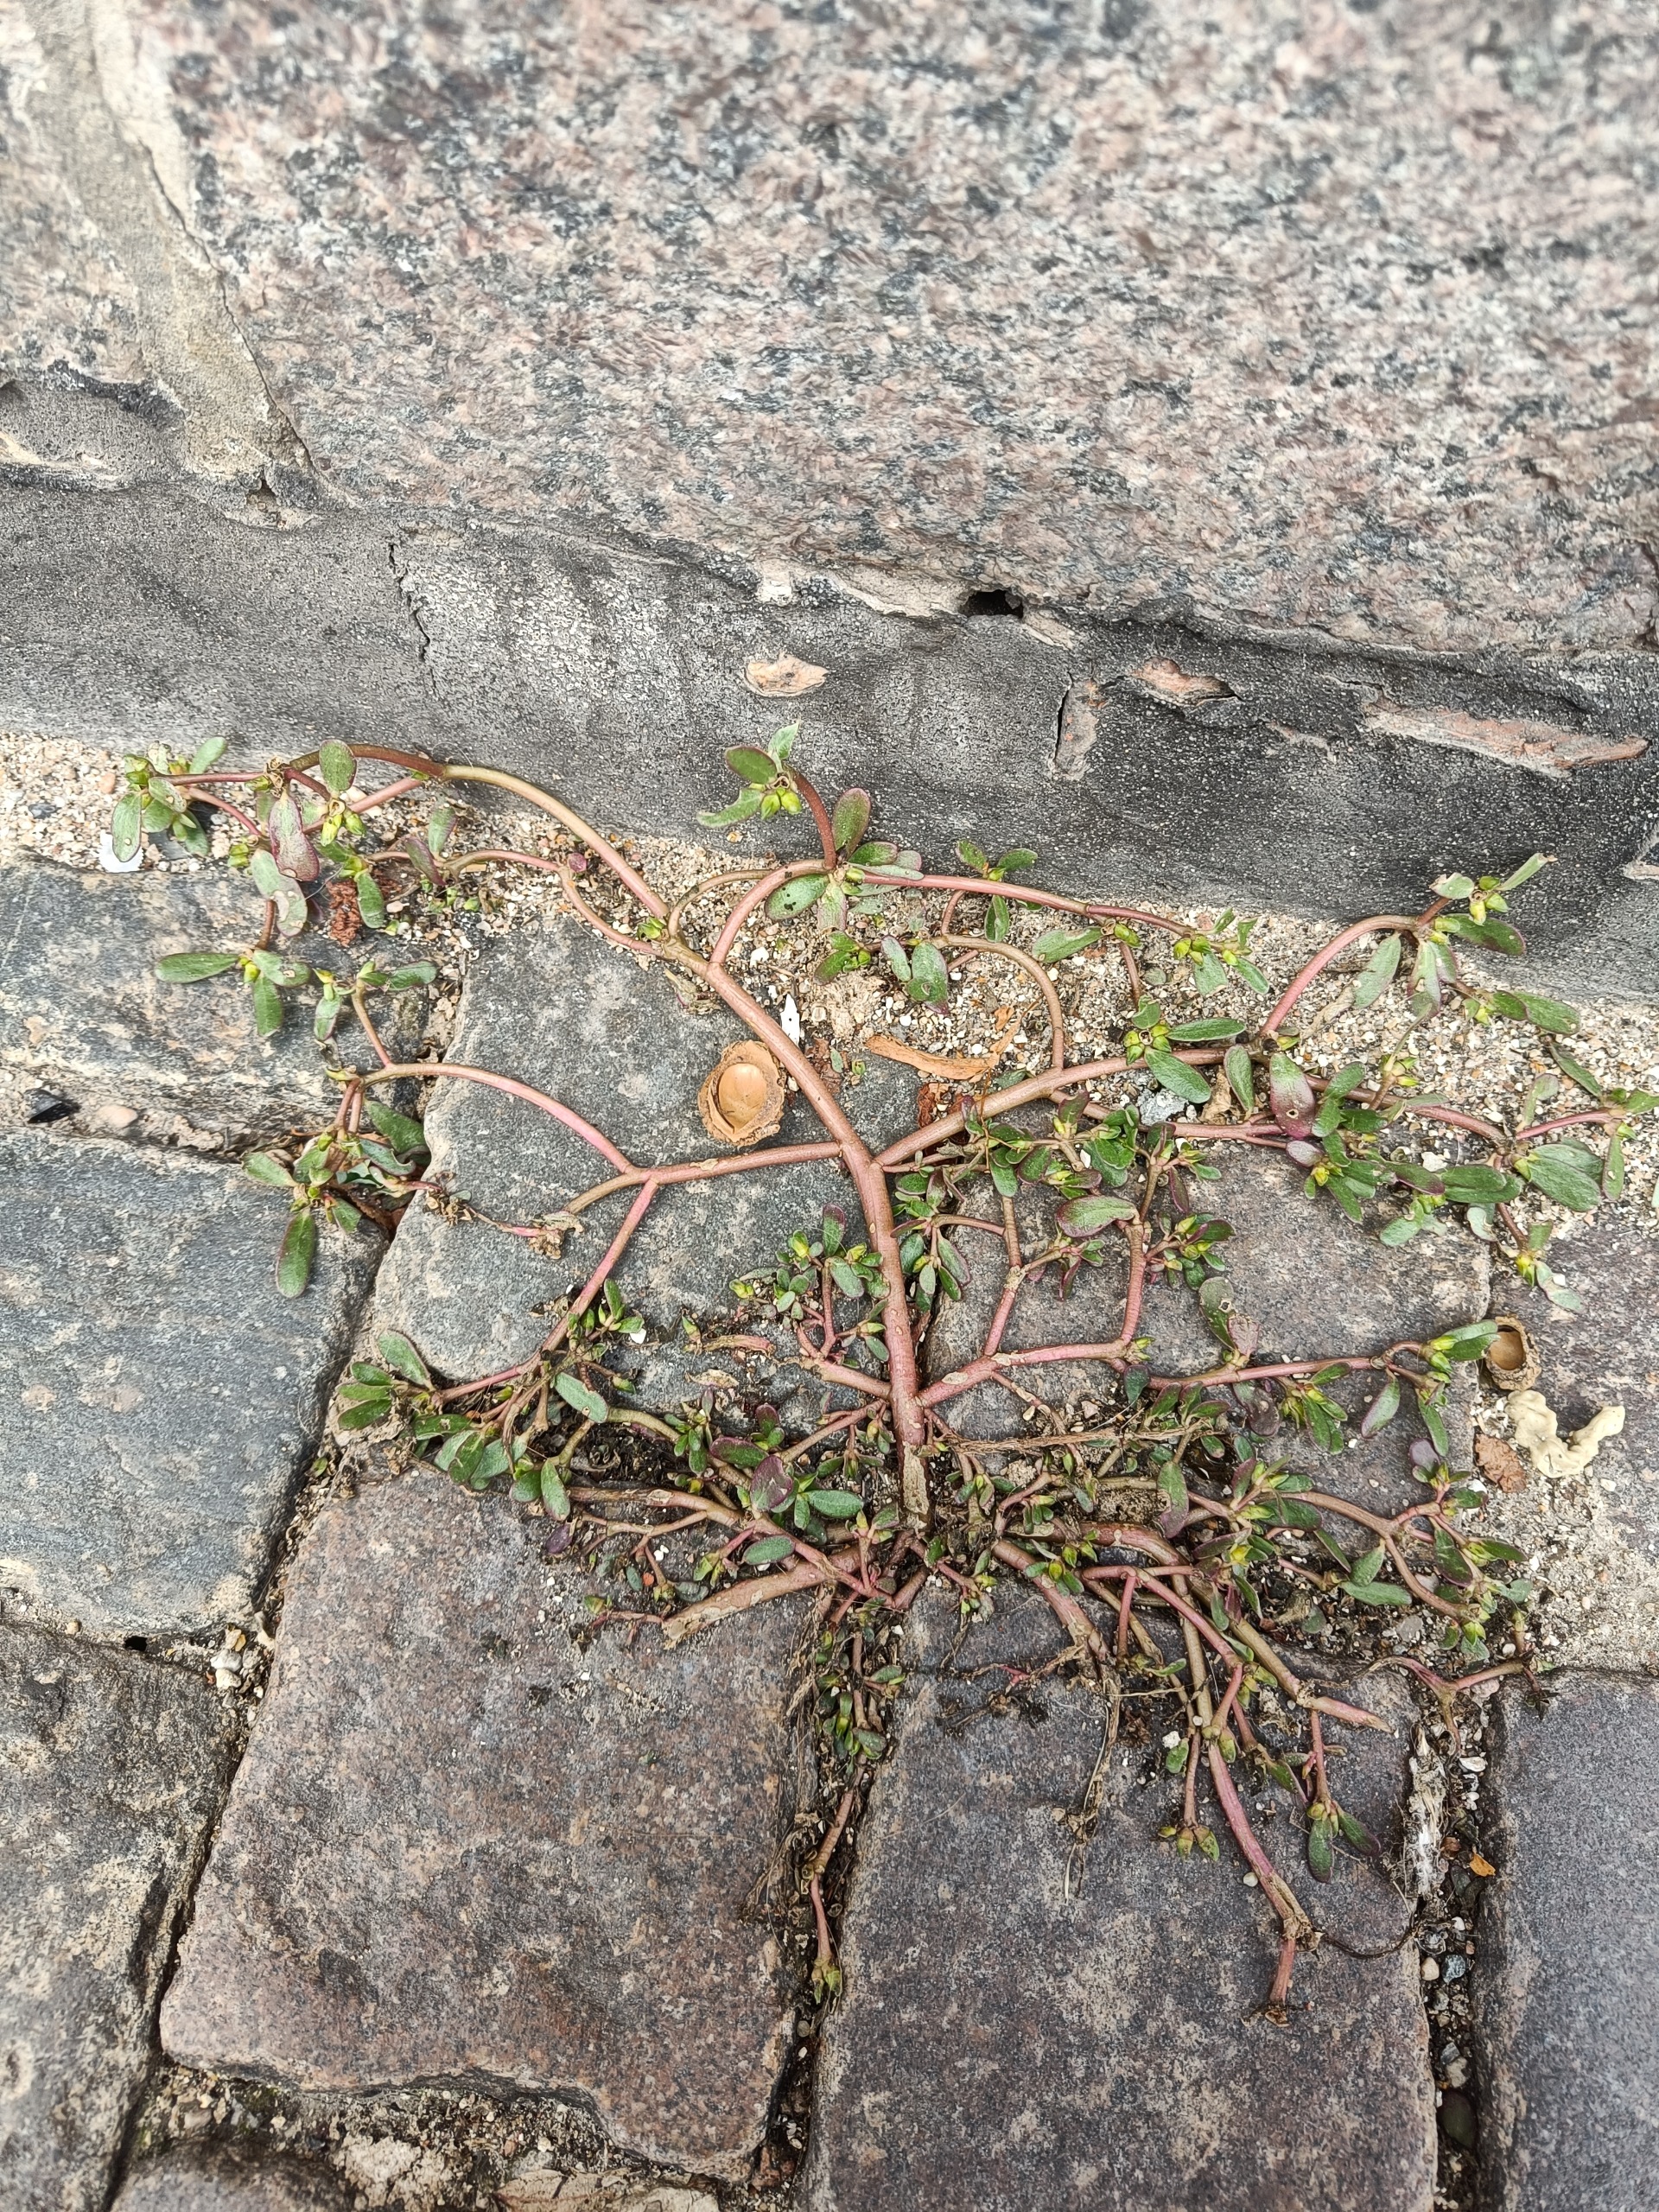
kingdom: Plantae
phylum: Tracheophyta
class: Magnoliopsida
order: Caryophyllales
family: Portulacaceae
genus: Portulaca
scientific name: Portulaca oleracea
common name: Portulak
